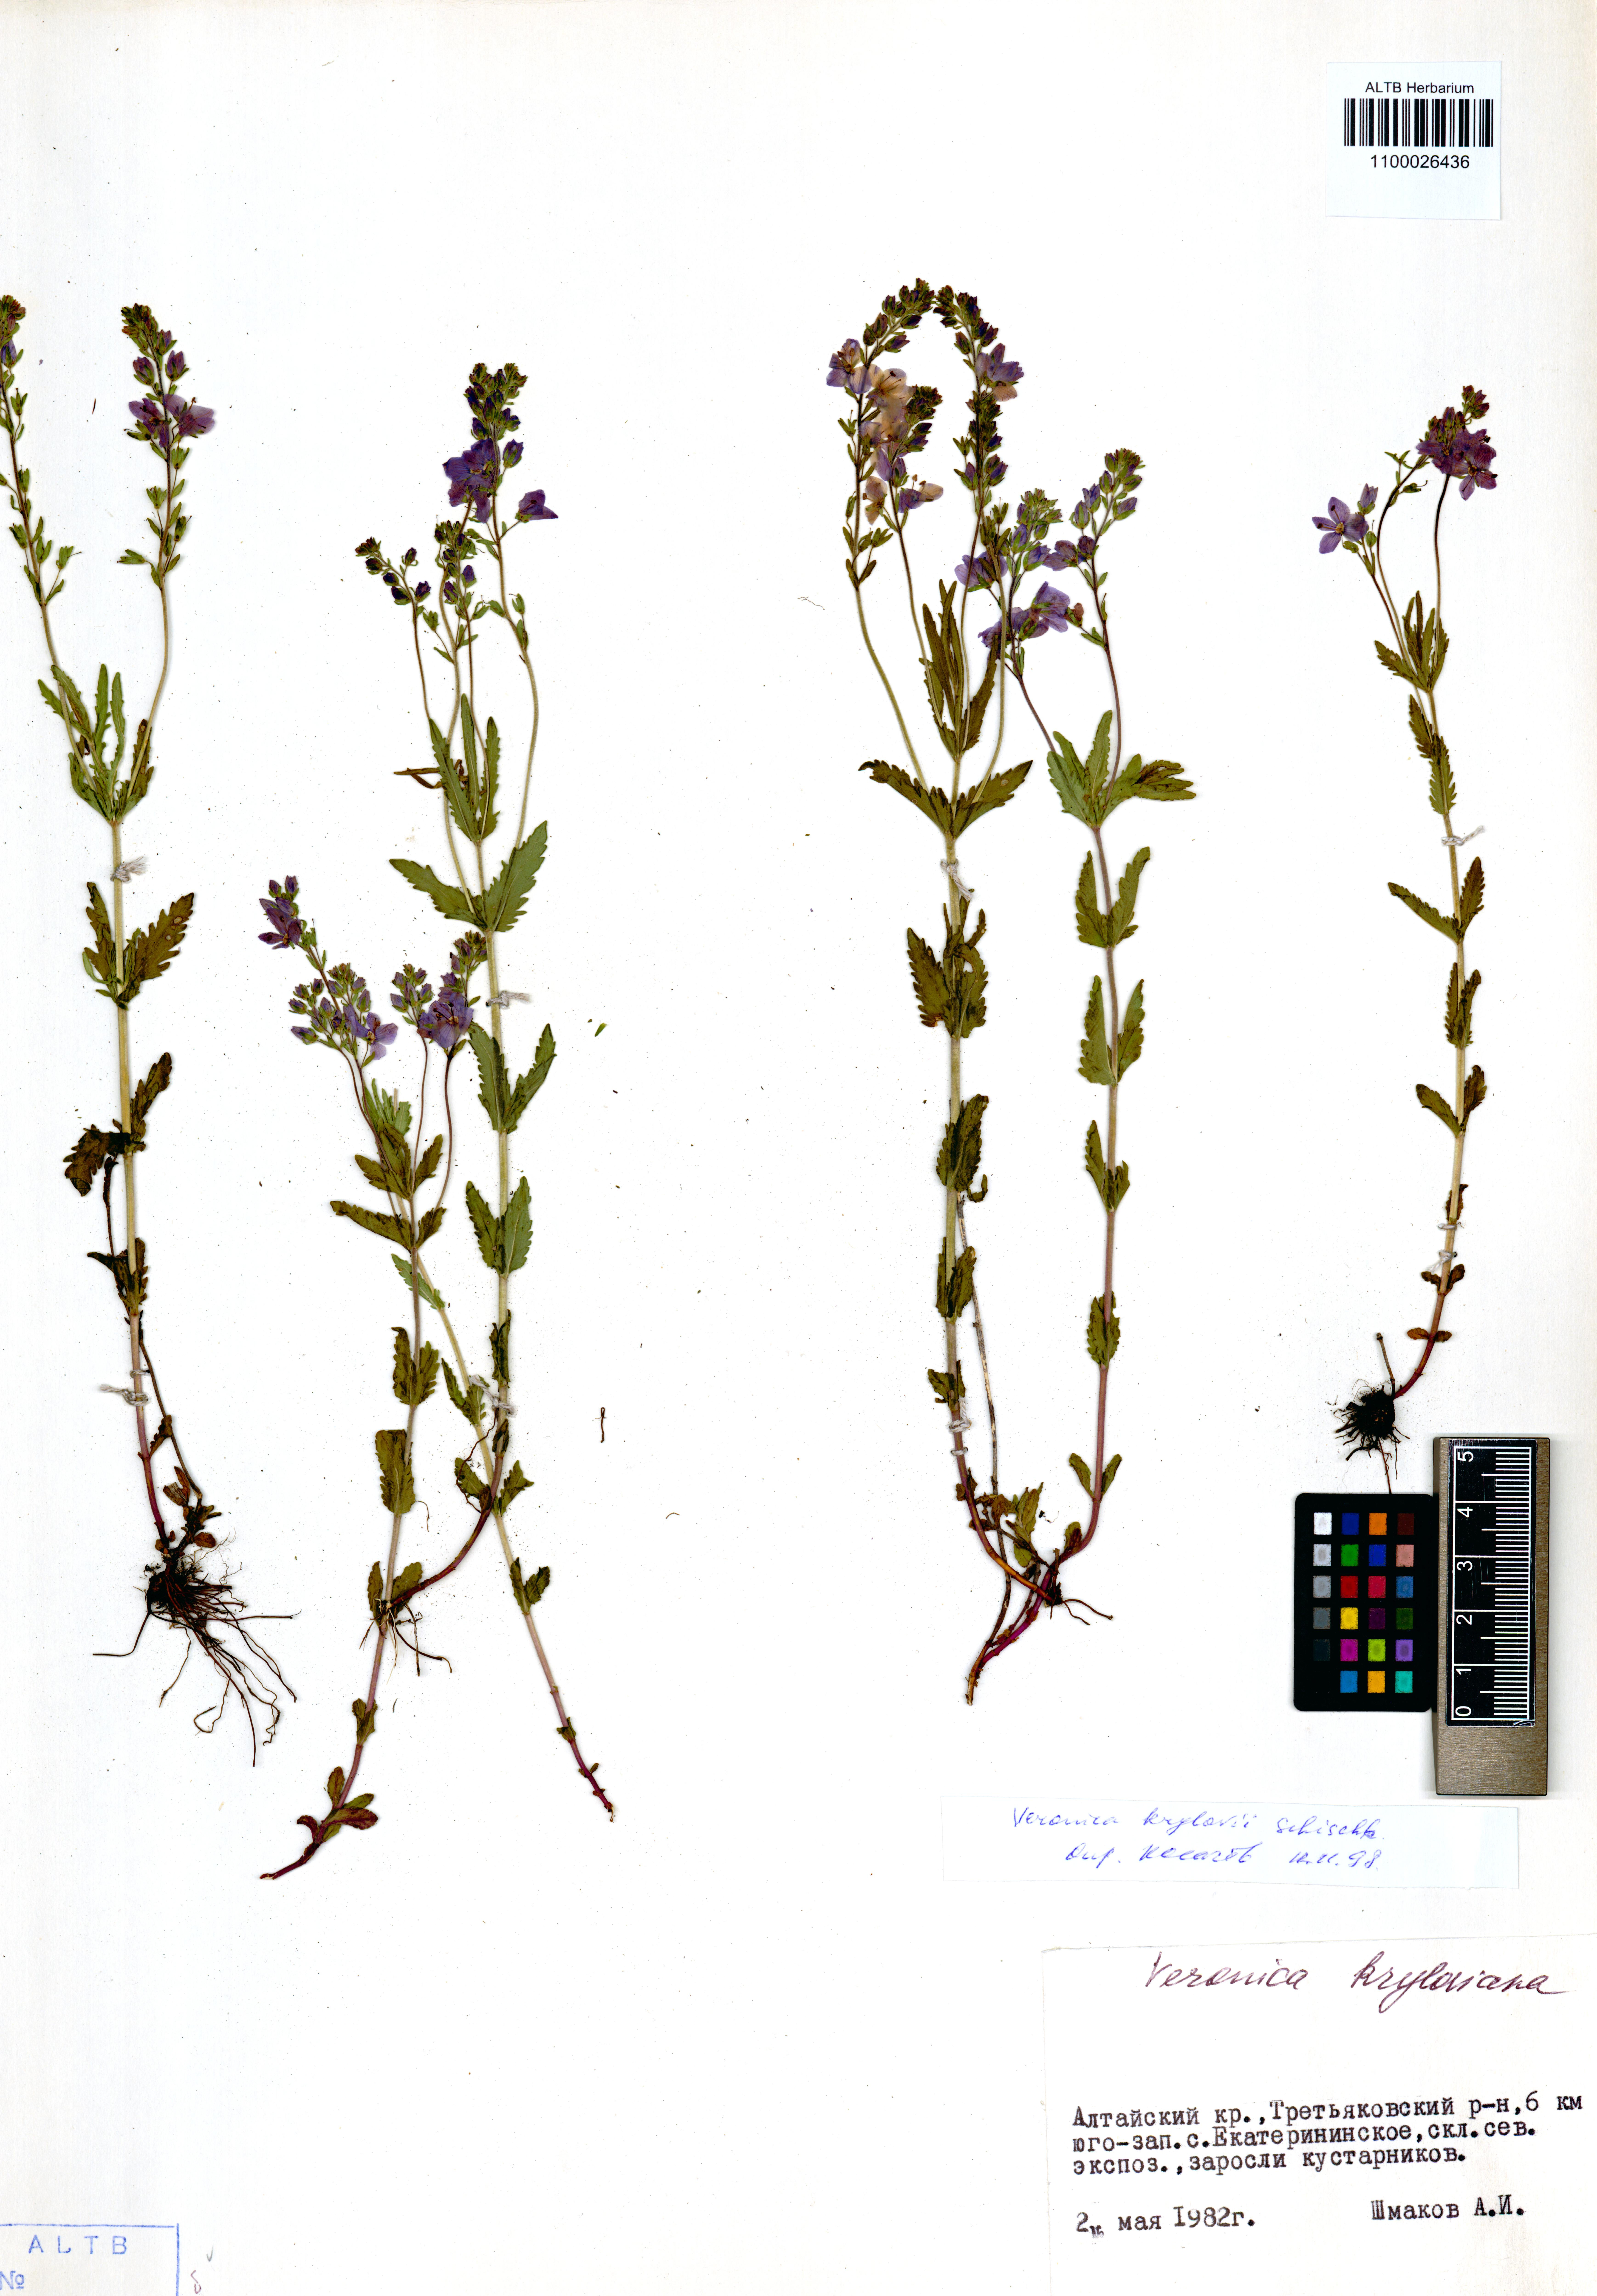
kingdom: Plantae
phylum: Tracheophyta
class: Magnoliopsida
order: Lamiales
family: Plantaginaceae
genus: Veronica
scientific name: Veronica krylovii
